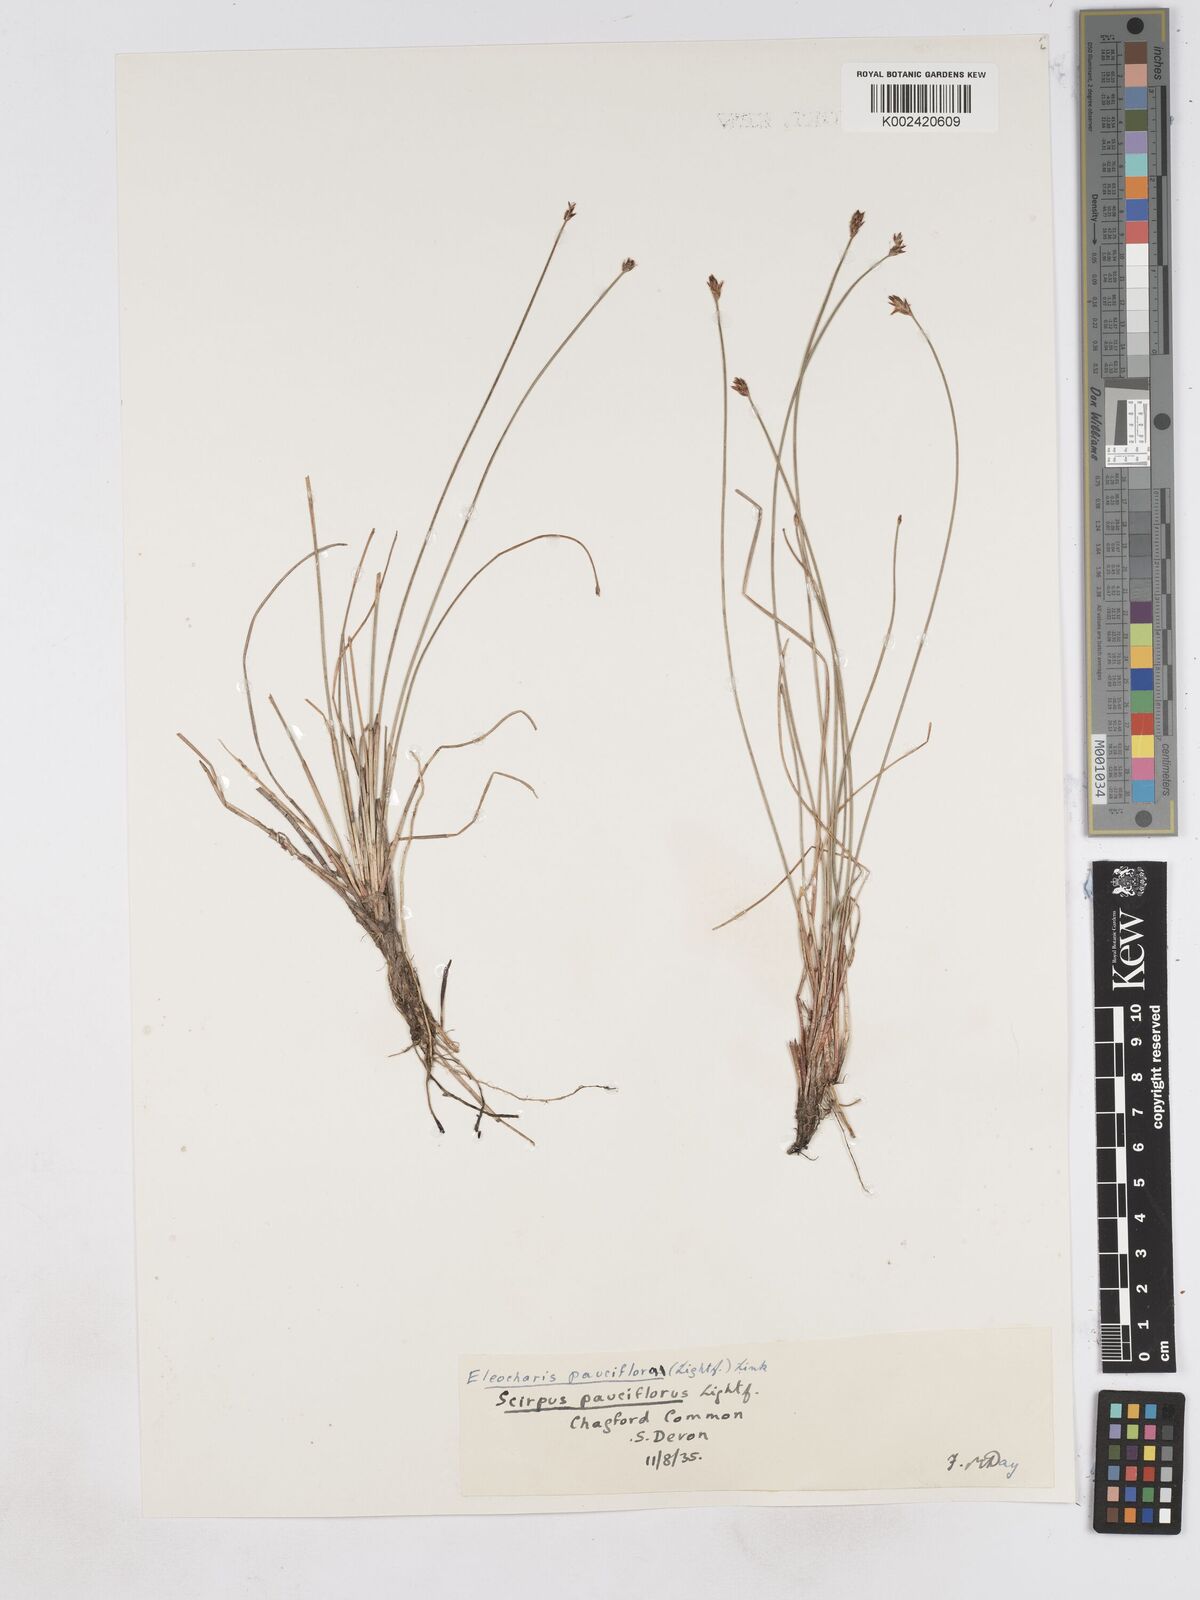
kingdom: Plantae
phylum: Tracheophyta
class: Liliopsida
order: Poales
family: Cyperaceae
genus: Eleocharis
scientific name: Eleocharis quinqueflora
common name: Few-flowered spike-rush
